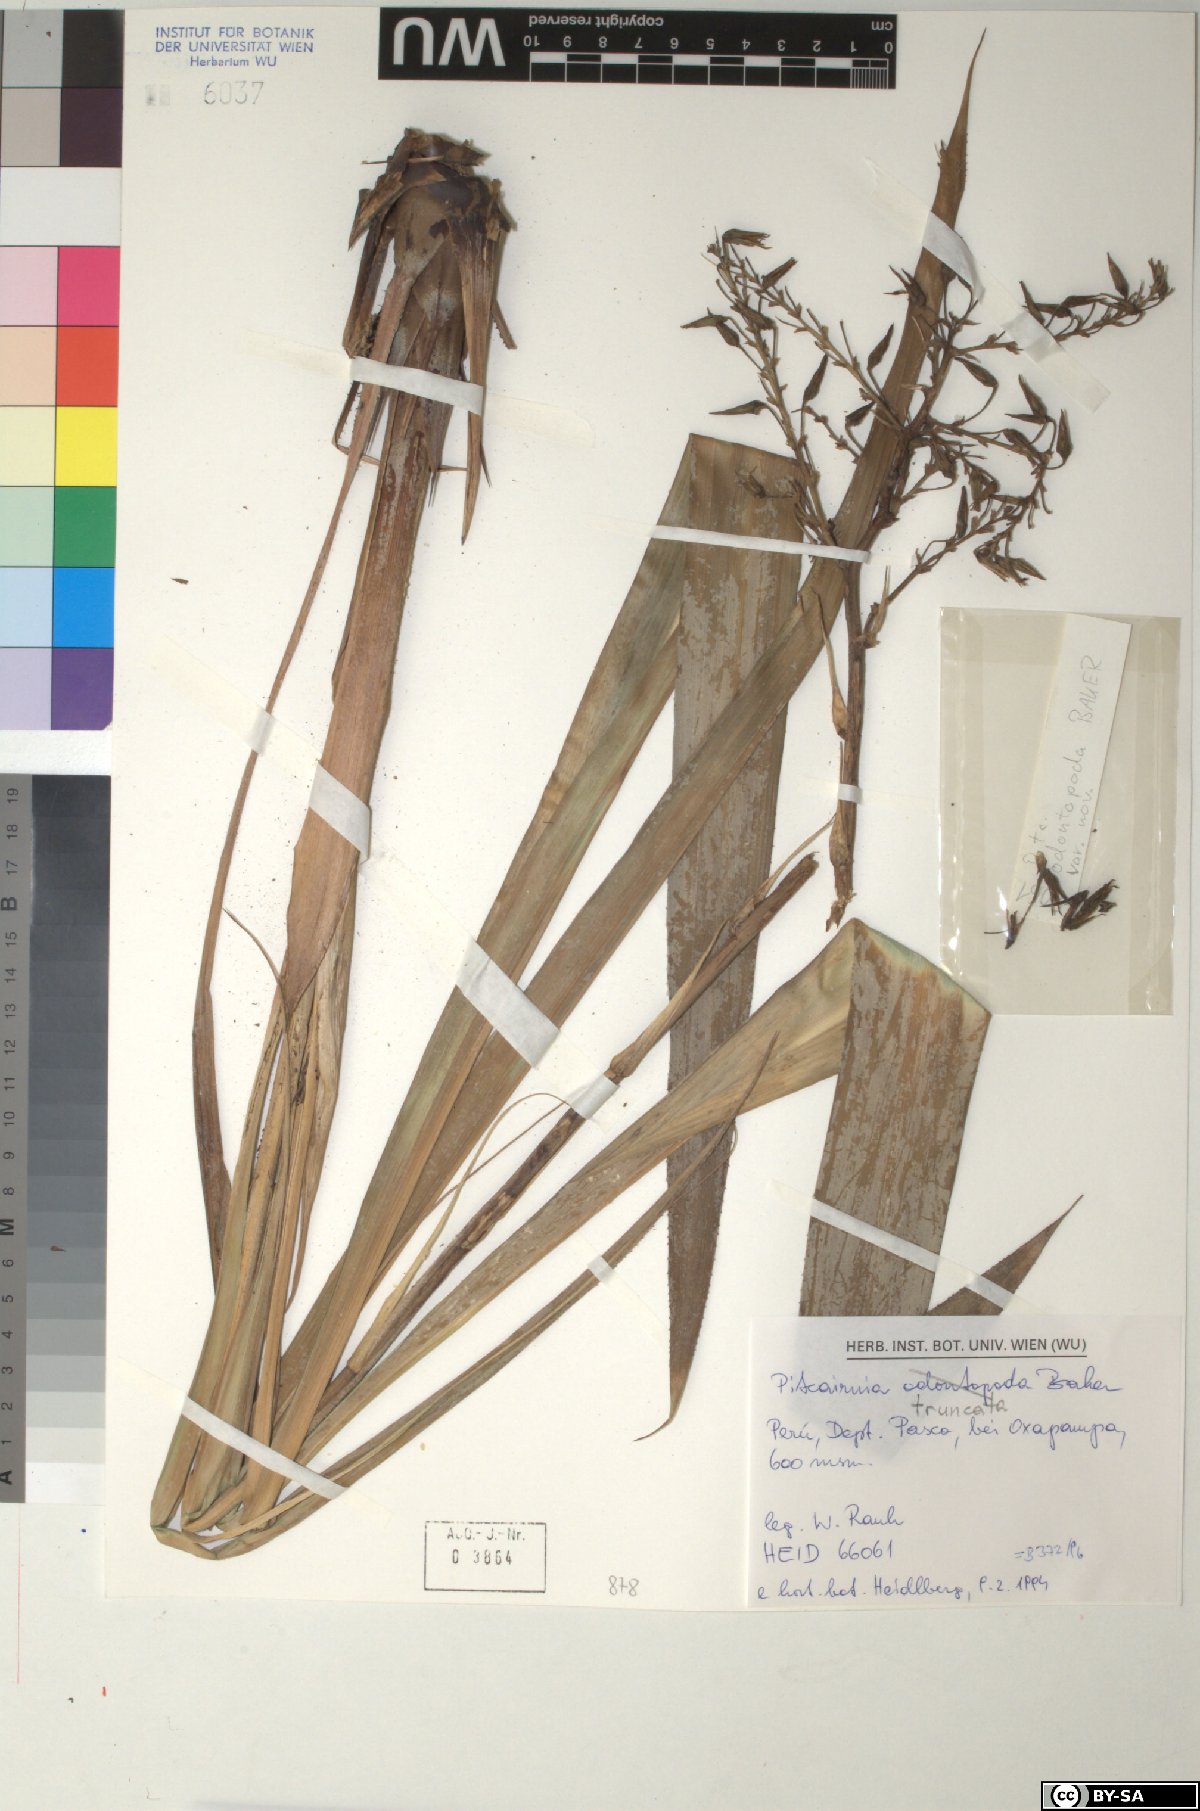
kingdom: Plantae
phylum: Tracheophyta
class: Liliopsida
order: Poales
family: Bromeliaceae
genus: Pitcairnia
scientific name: Pitcairnia truncata
